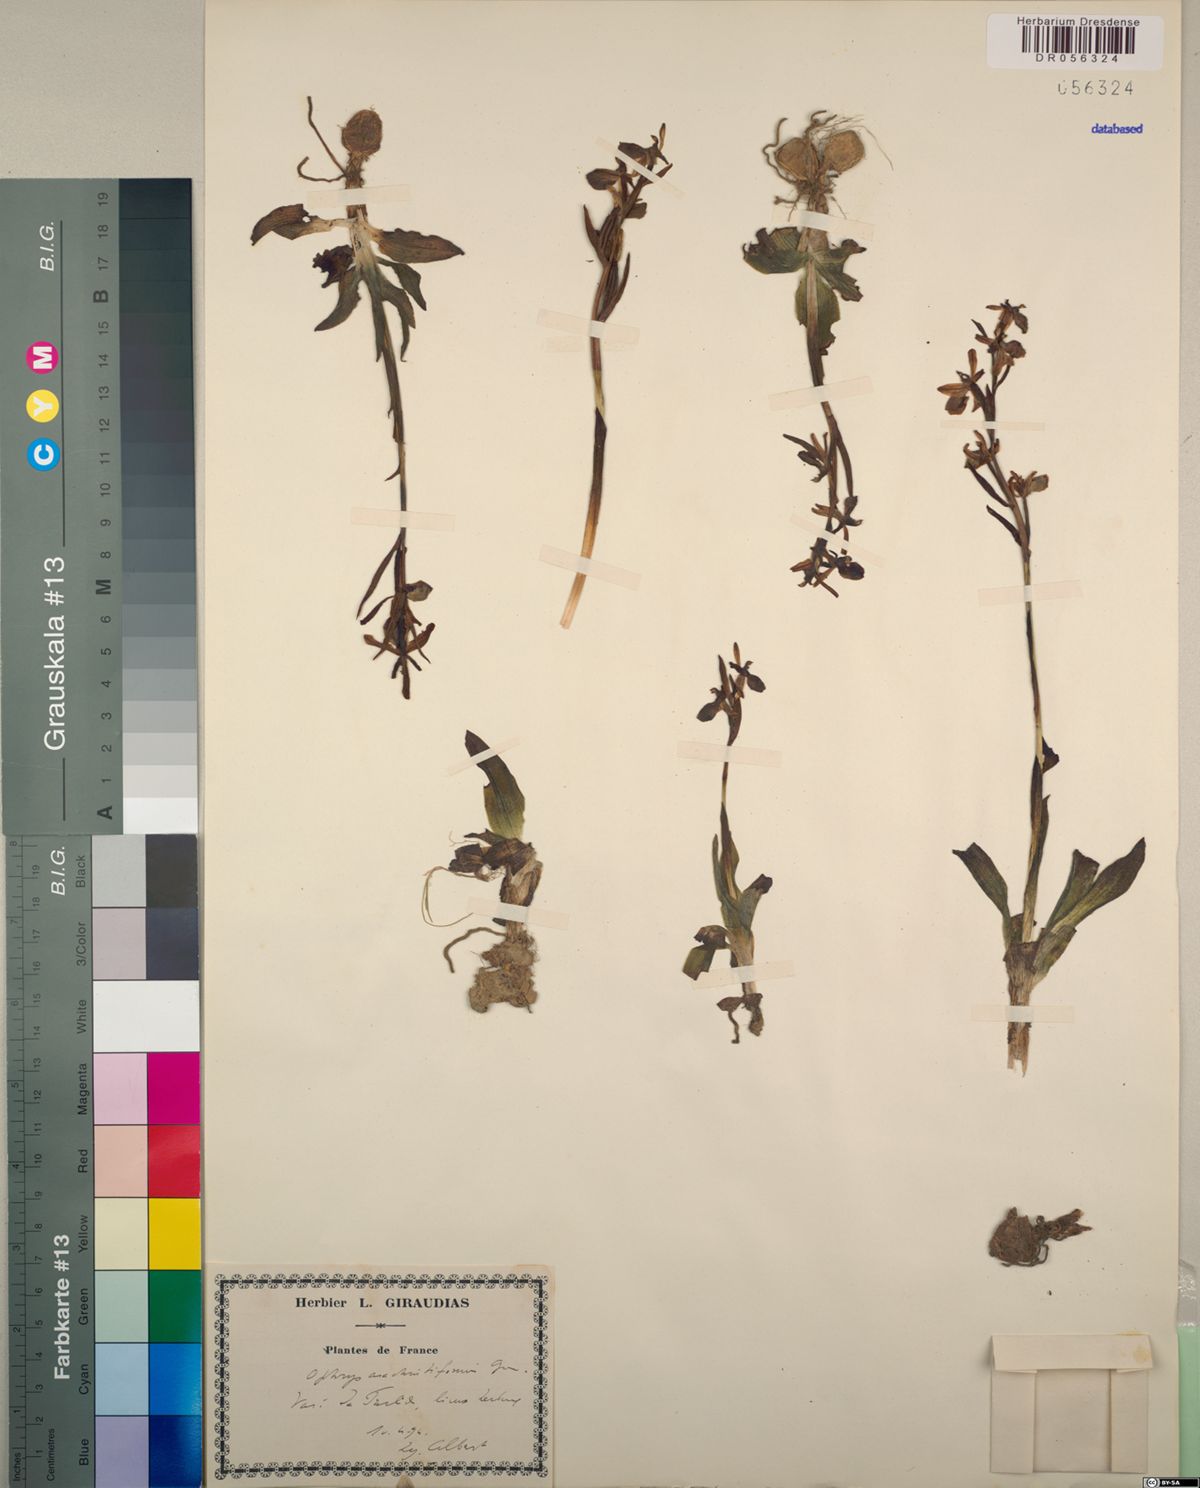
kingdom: Plantae
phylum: Tracheophyta
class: Liliopsida
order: Asparagales
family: Orchidaceae
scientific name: Orchidaceae
